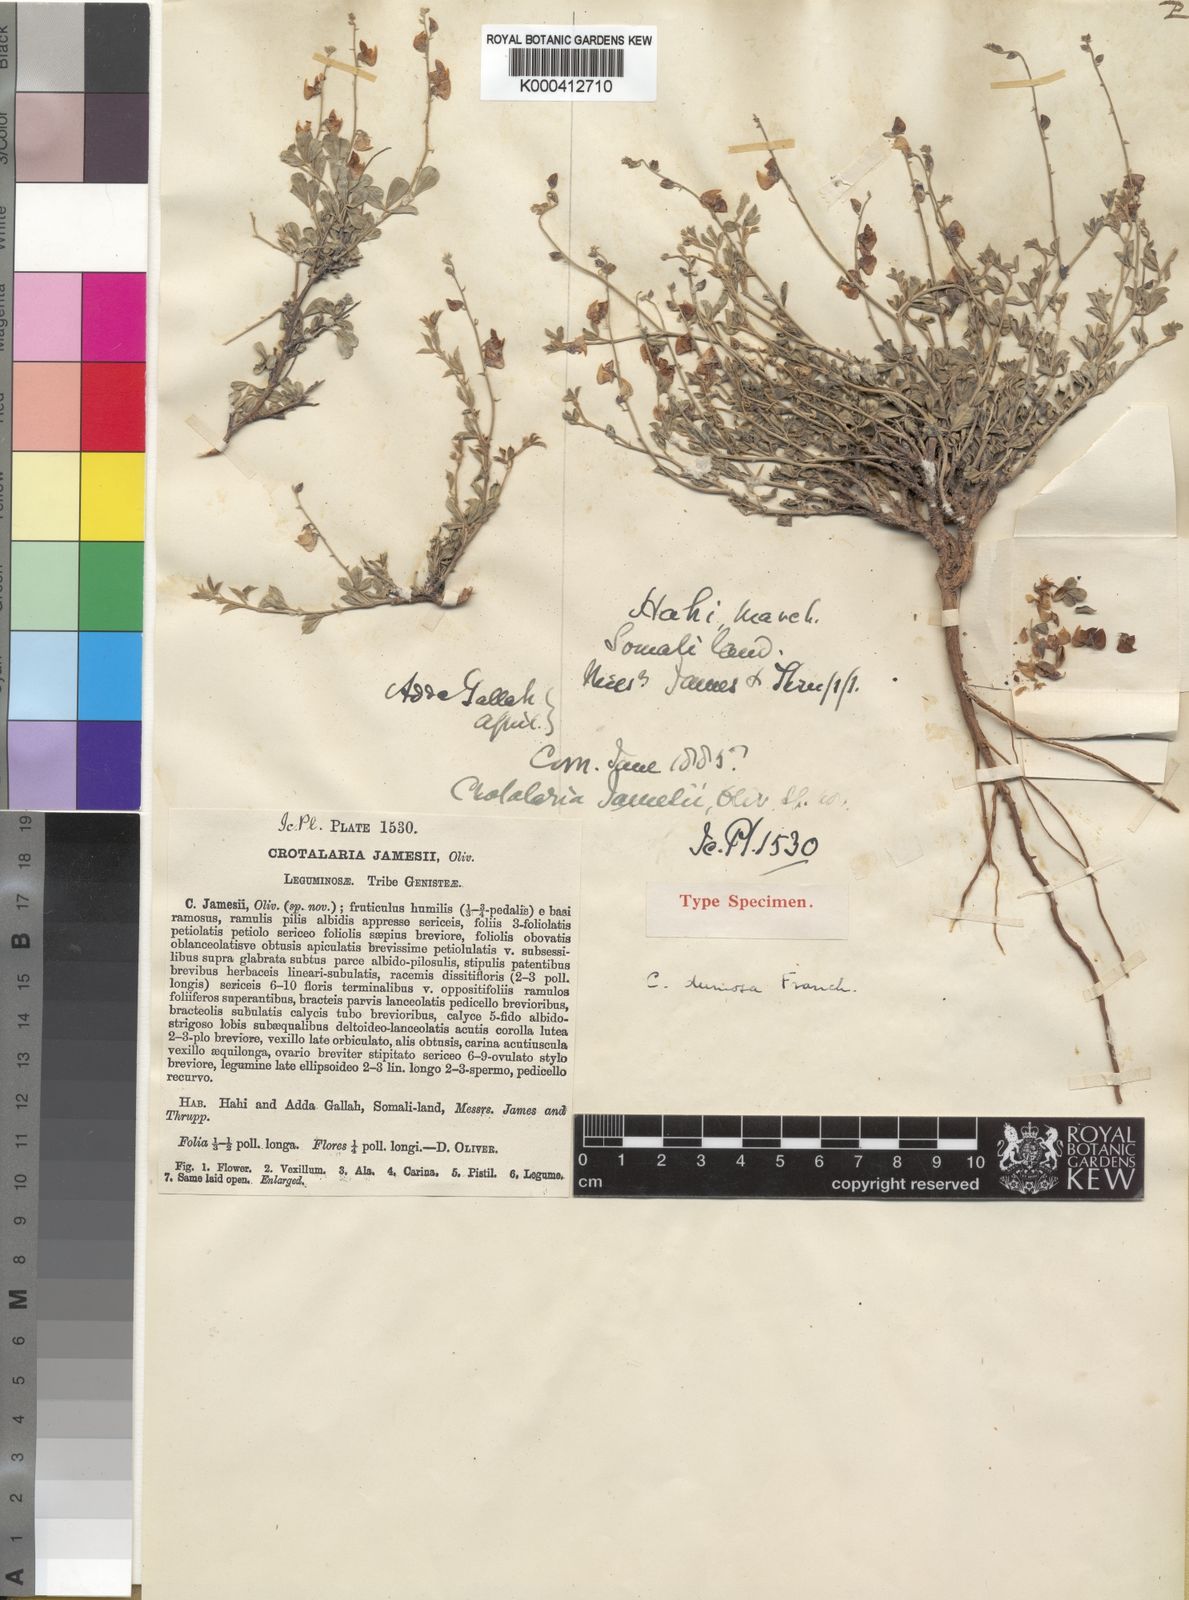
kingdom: Plantae
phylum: Tracheophyta
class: Magnoliopsida
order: Fabales
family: Fabaceae
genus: Crotalaria
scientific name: Crotalaria dumosa
